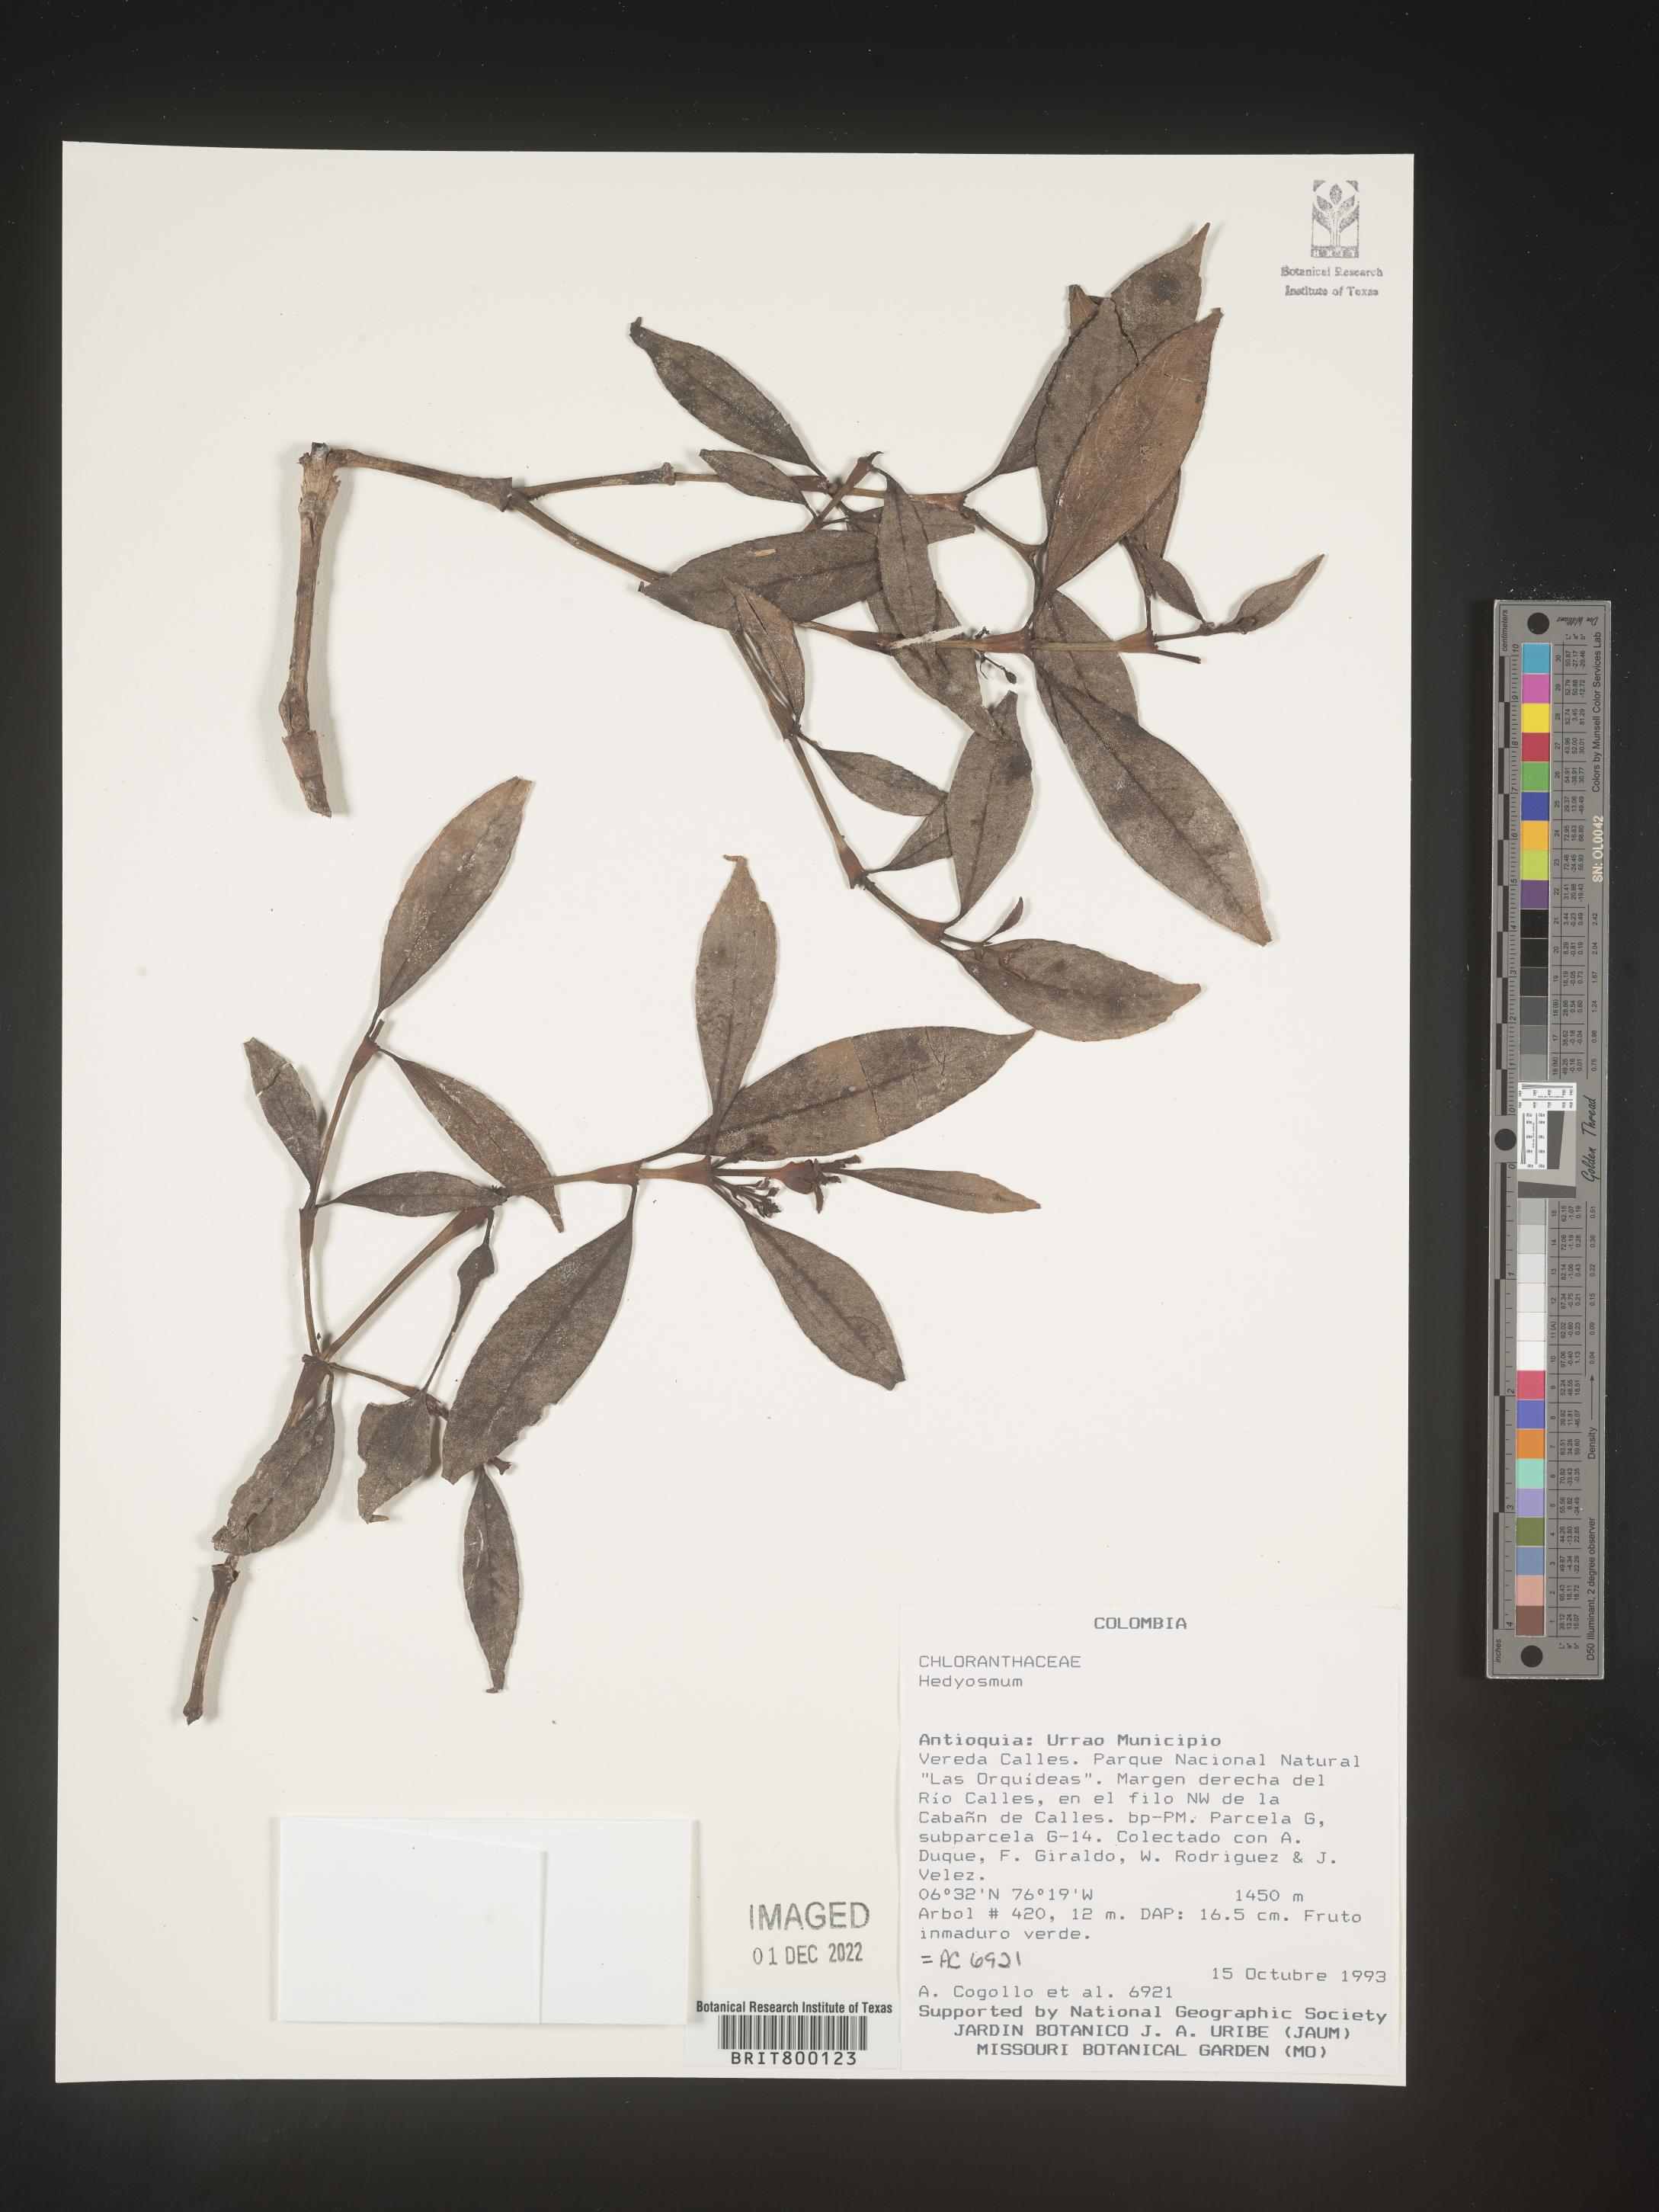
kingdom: Plantae
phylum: Tracheophyta
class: Magnoliopsida
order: Chloranthales
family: Chloranthaceae
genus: Hedyosmum
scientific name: Hedyosmum
